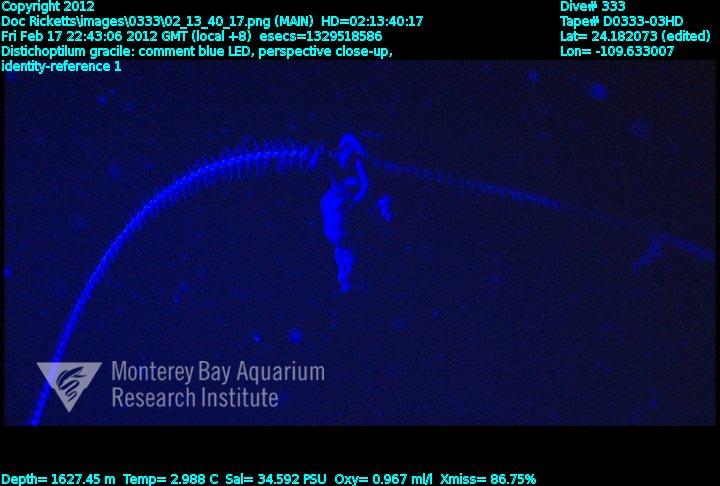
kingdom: Animalia
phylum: Cnidaria
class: Anthozoa
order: Scleralcyonacea
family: Protoptilidae
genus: Distichoptilum
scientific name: Distichoptilum gracile
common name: Slender sea pen
